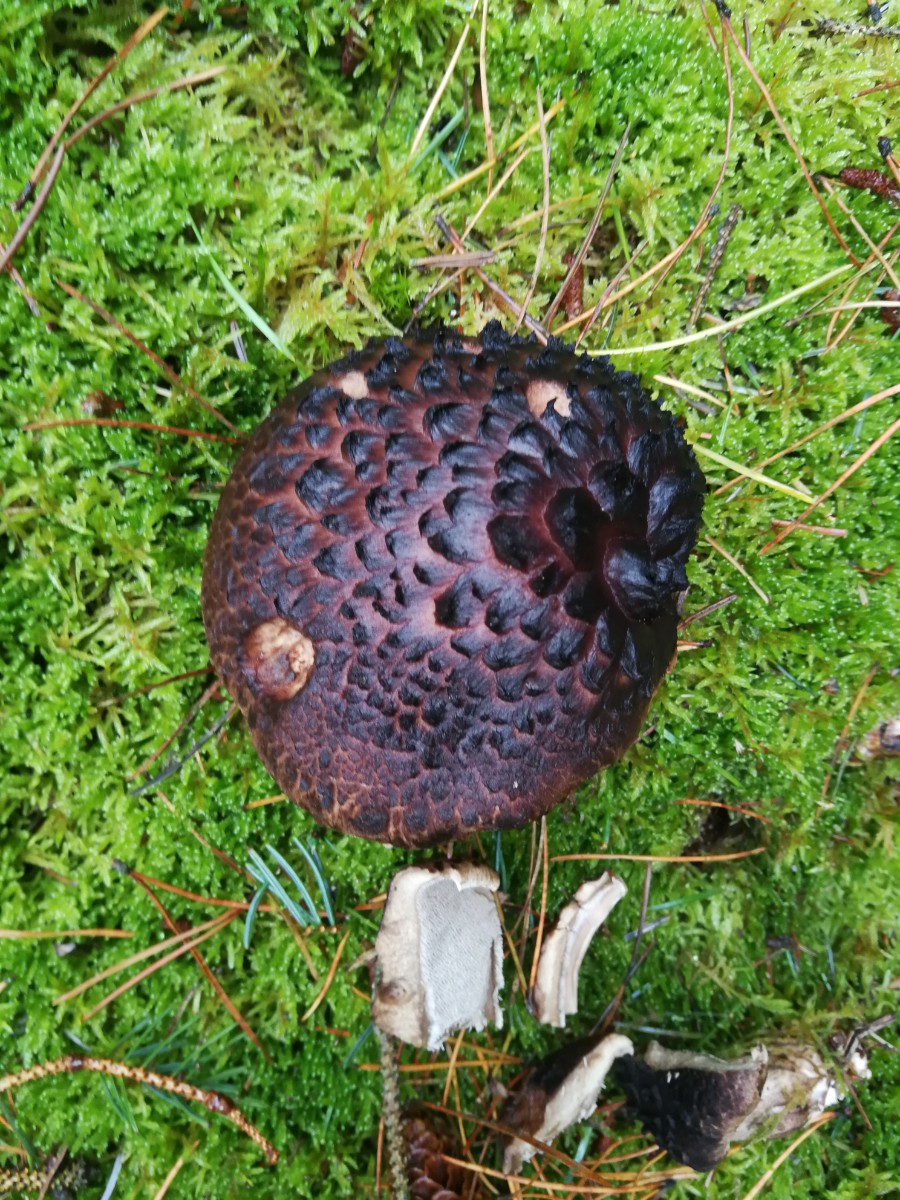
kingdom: Fungi
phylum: Basidiomycota
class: Agaricomycetes
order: Thelephorales
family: Bankeraceae
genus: Sarcodon
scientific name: Sarcodon squamosus
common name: småskællet kødpigsvamp
